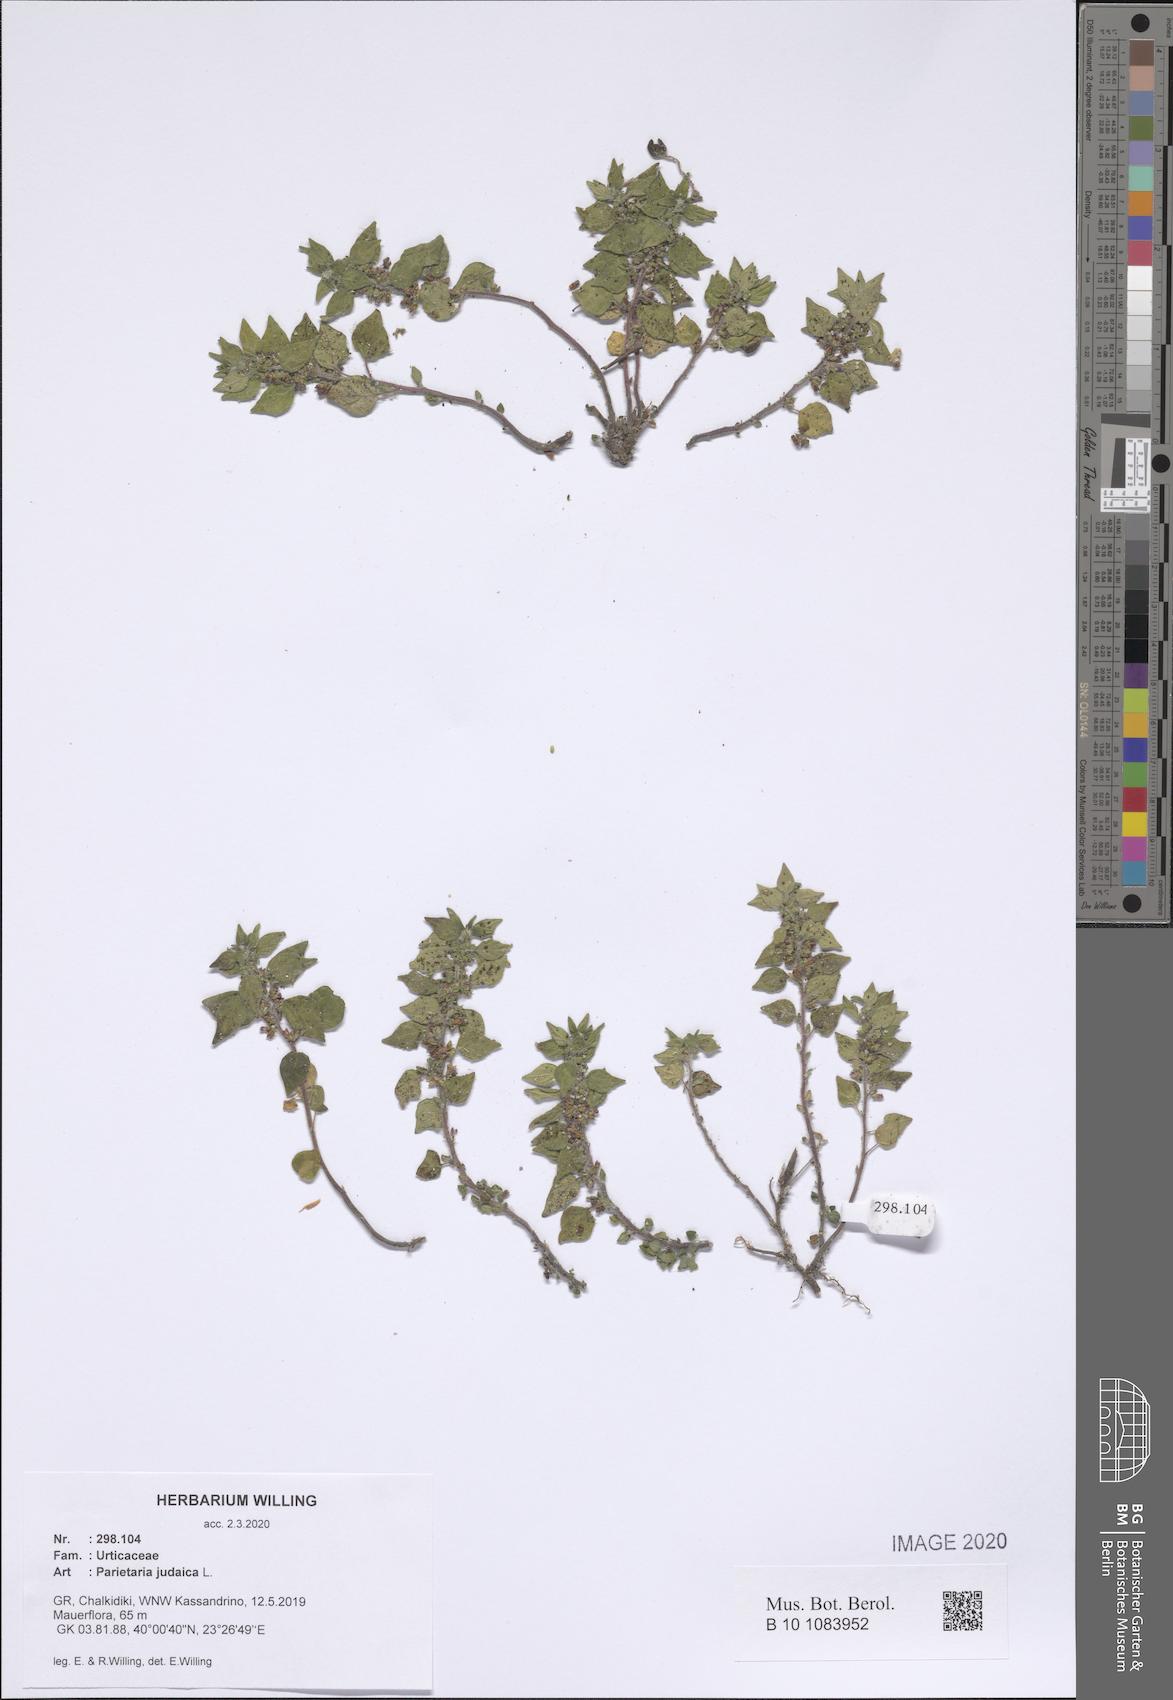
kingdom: Plantae
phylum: Tracheophyta
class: Magnoliopsida
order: Rosales
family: Urticaceae
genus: Parietaria
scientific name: Parietaria judaica
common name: Pellitory-of-the-wall
